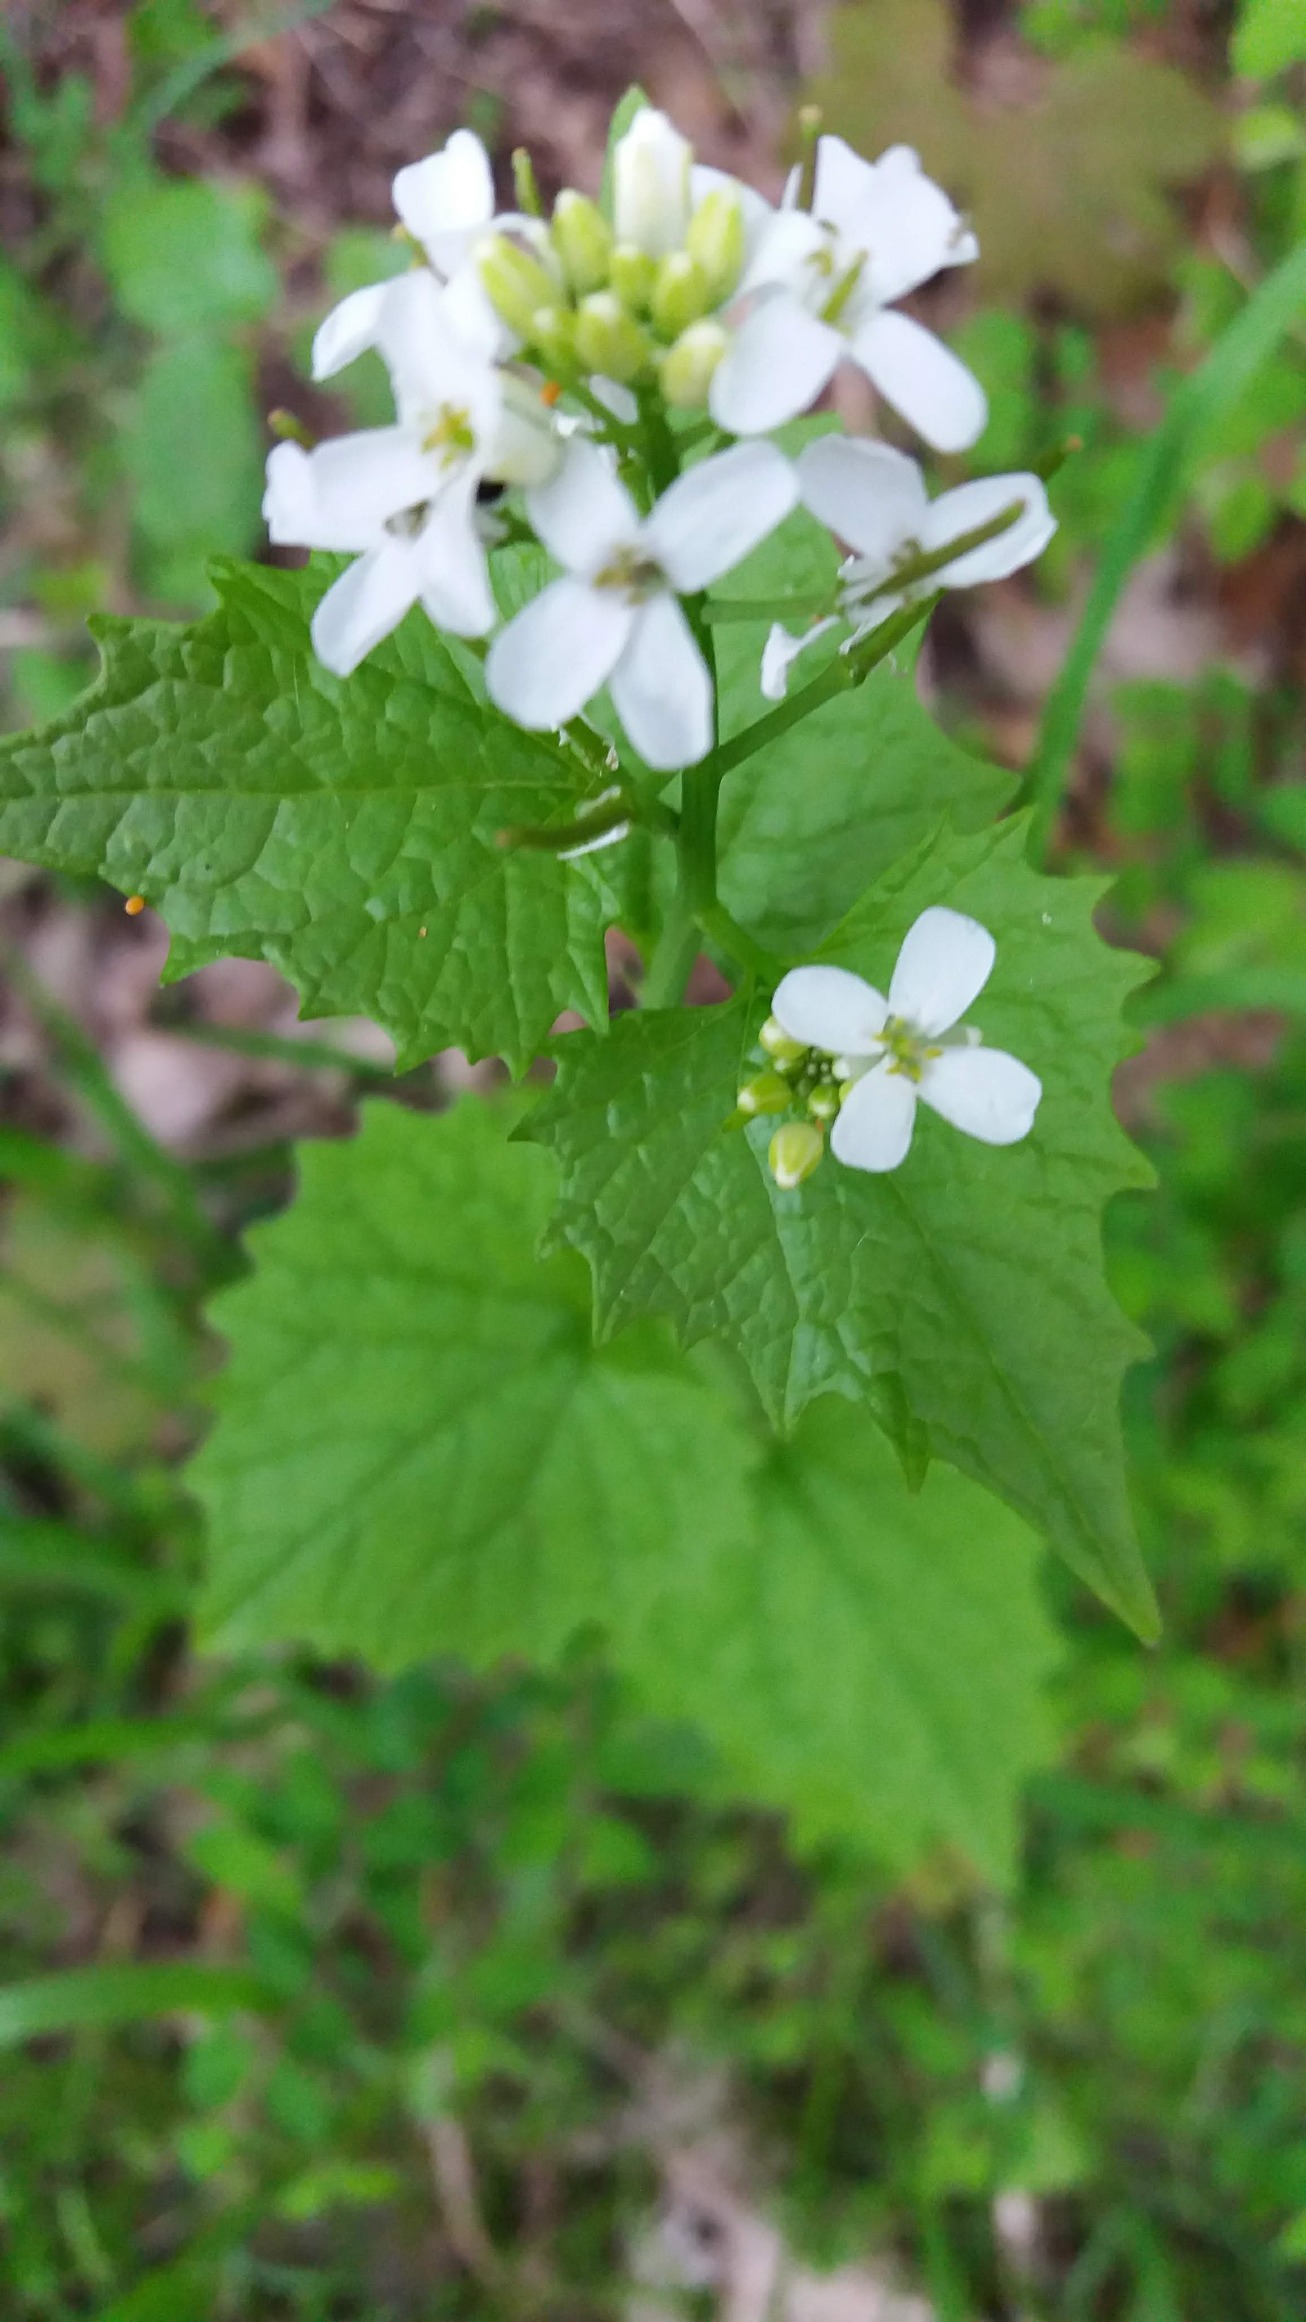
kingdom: Plantae
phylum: Tracheophyta
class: Magnoliopsida
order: Brassicales
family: Brassicaceae
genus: Alliaria
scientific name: Alliaria petiolata
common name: Løgkarse
